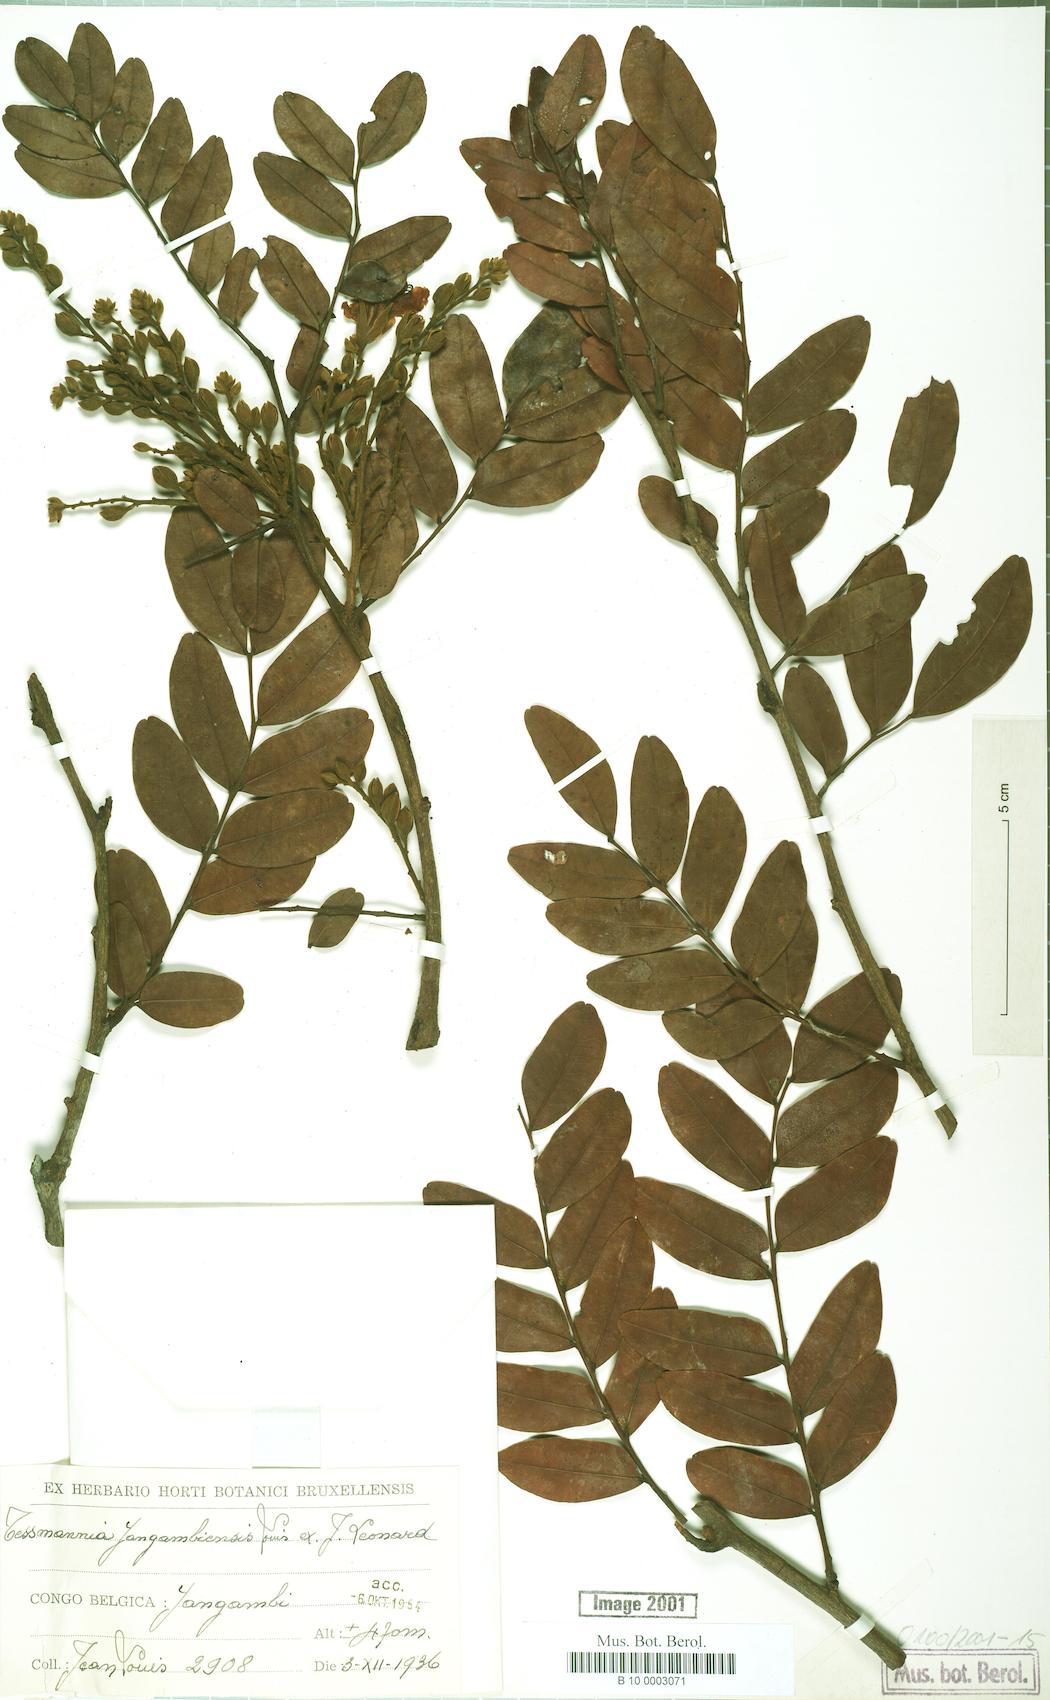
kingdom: Plantae
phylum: Tracheophyta
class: Magnoliopsida
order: Fabales
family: Fabaceae
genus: Tessmannia
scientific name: Tessmannia
